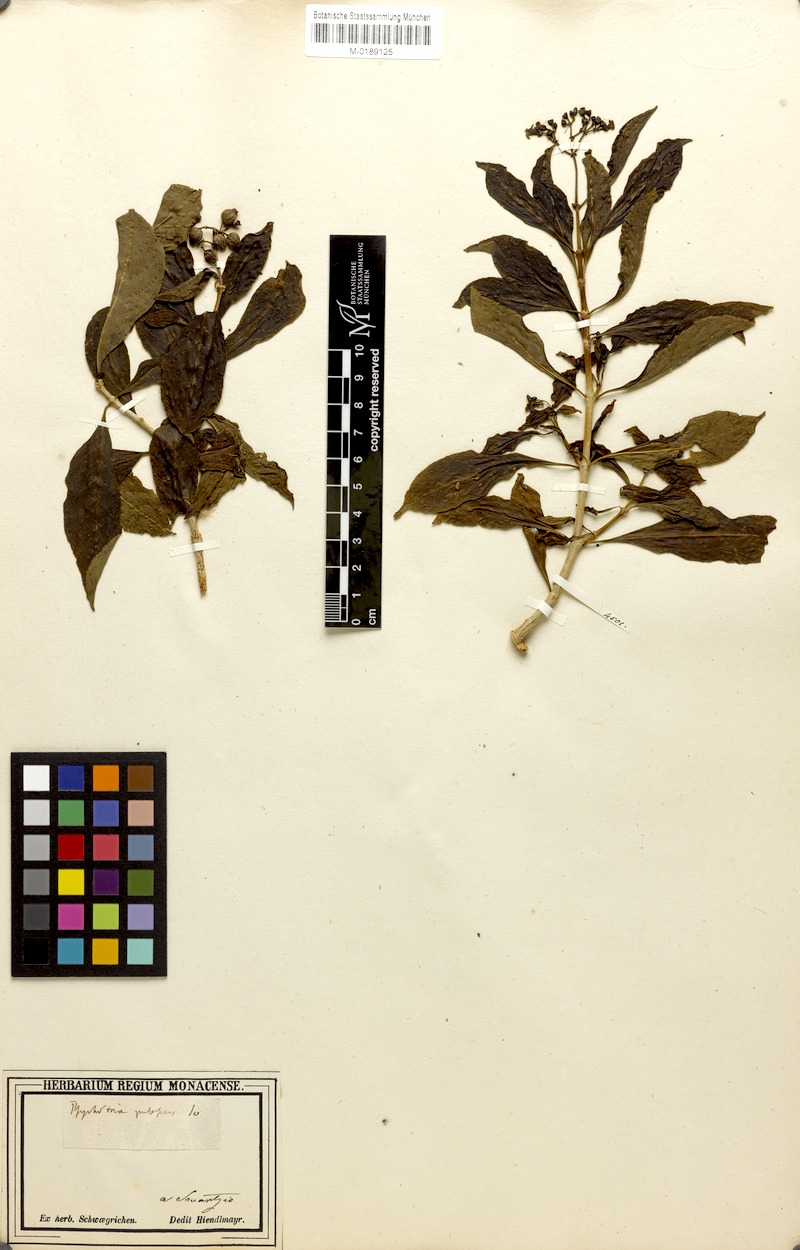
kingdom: Plantae
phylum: Tracheophyta
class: Magnoliopsida
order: Gentianales
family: Rubiaceae
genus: Palicourea
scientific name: Palicourea pubescens
